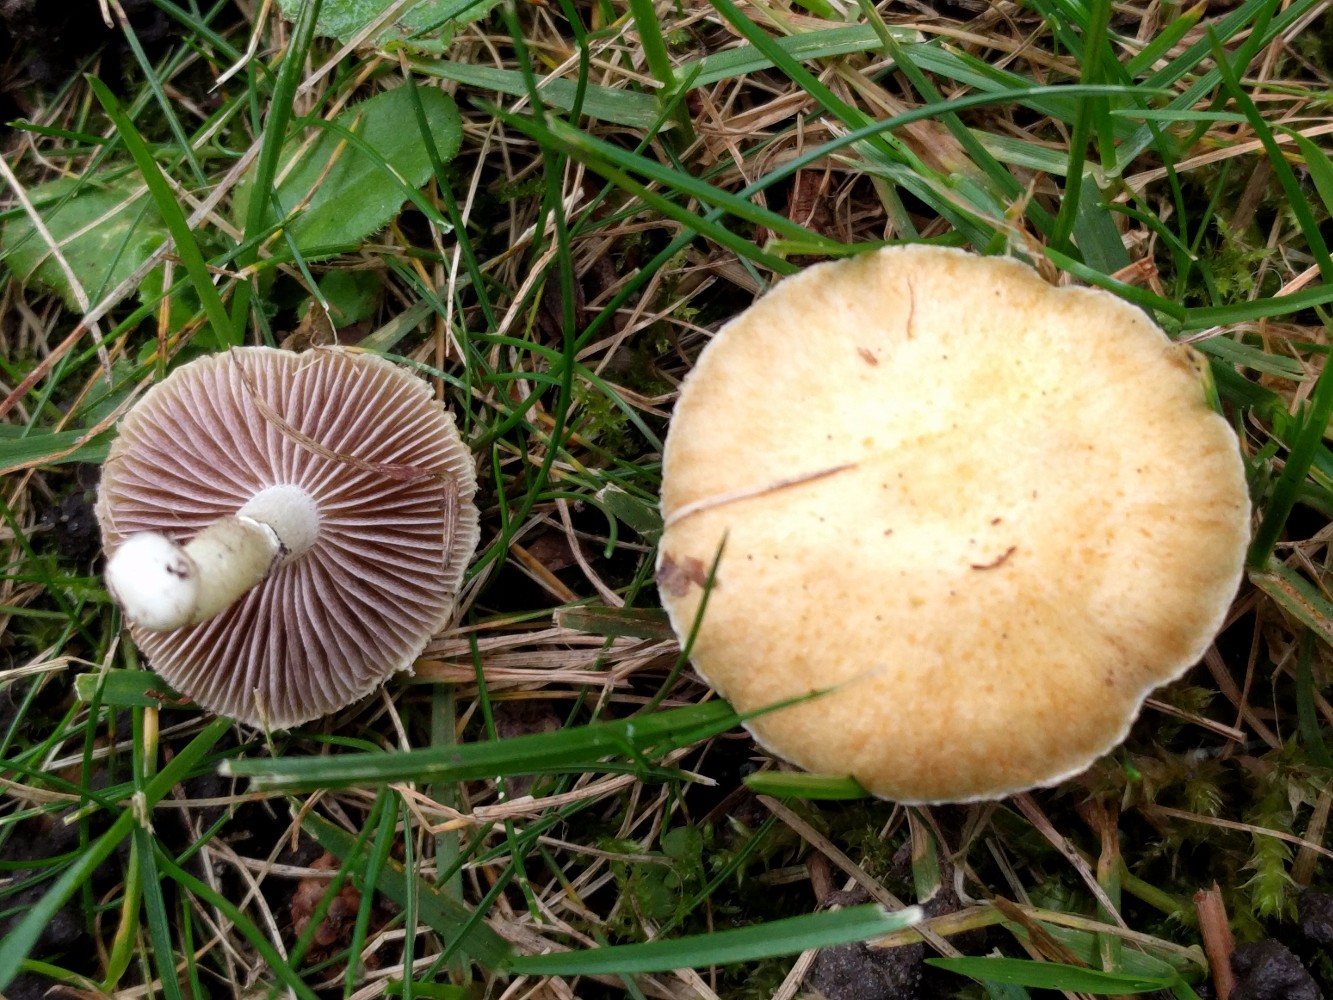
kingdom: Fungi
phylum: Basidiomycota
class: Agaricomycetes
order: Agaricales
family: Hymenogastraceae
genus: Psilocybe
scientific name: Psilocybe coronilla
